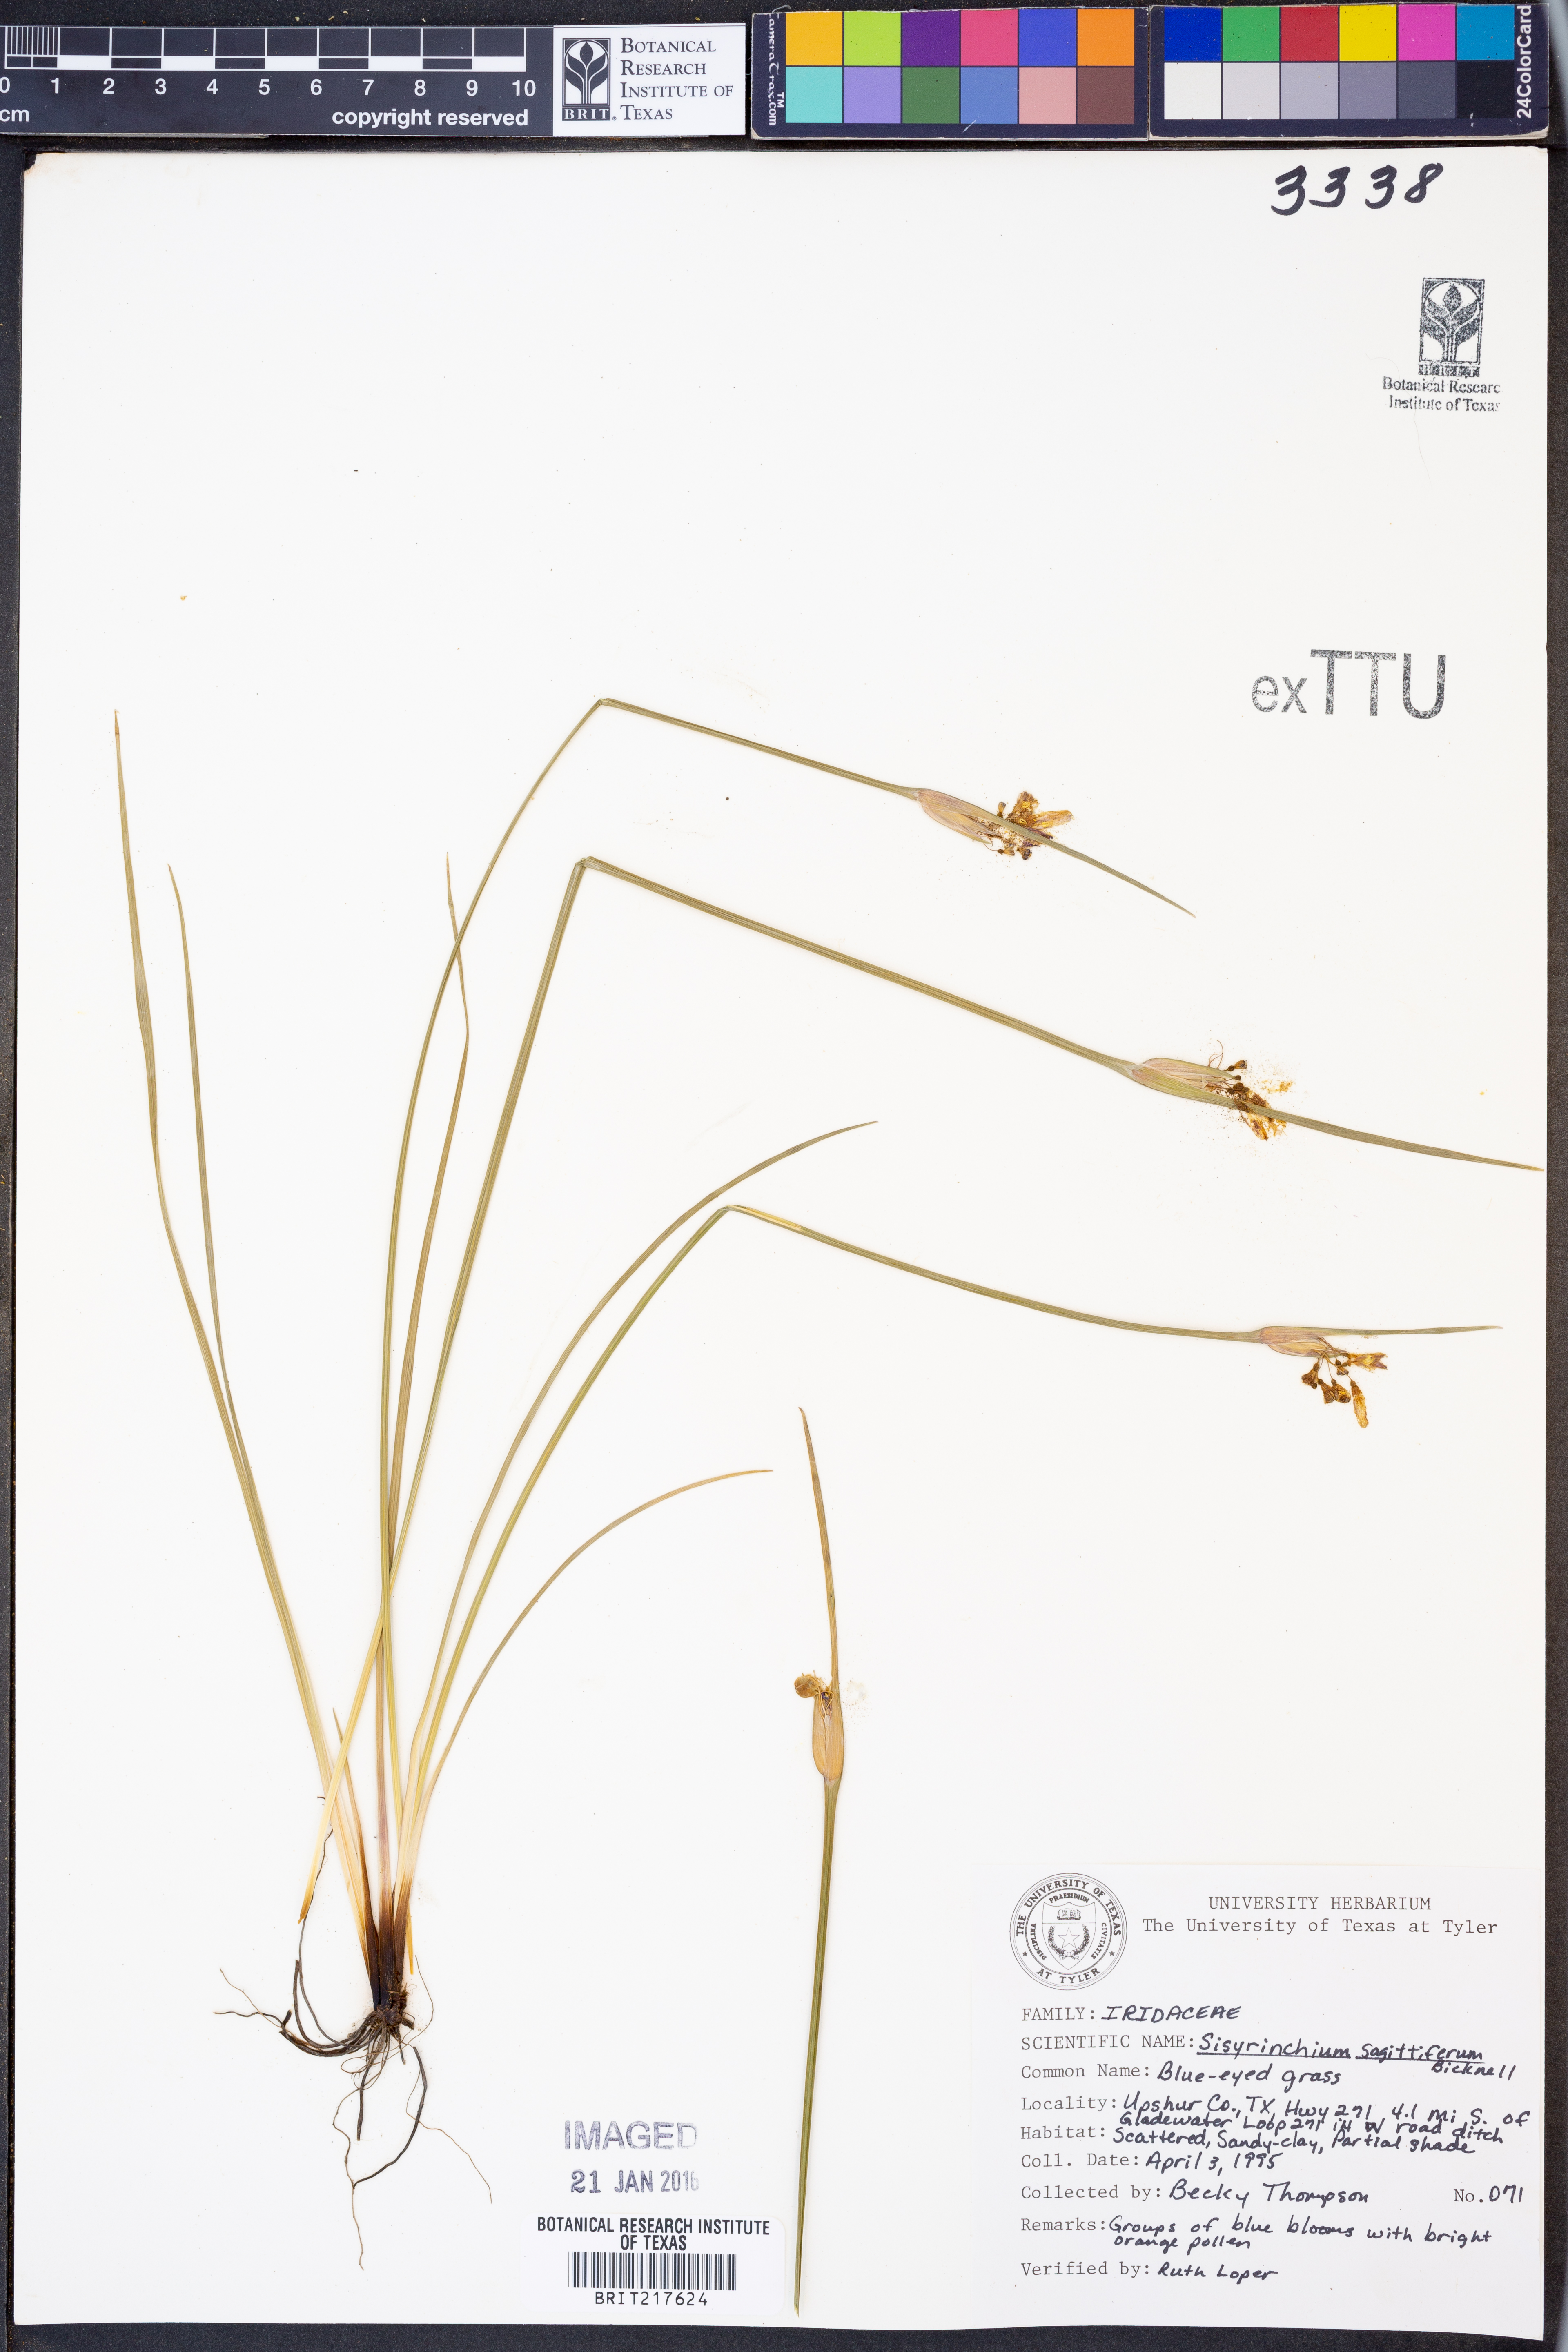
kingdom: Plantae
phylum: Tracheophyta
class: Liliopsida
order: Asparagales
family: Iridaceae
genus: Sisyrinchium
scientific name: Sisyrinchium sagittiferum
